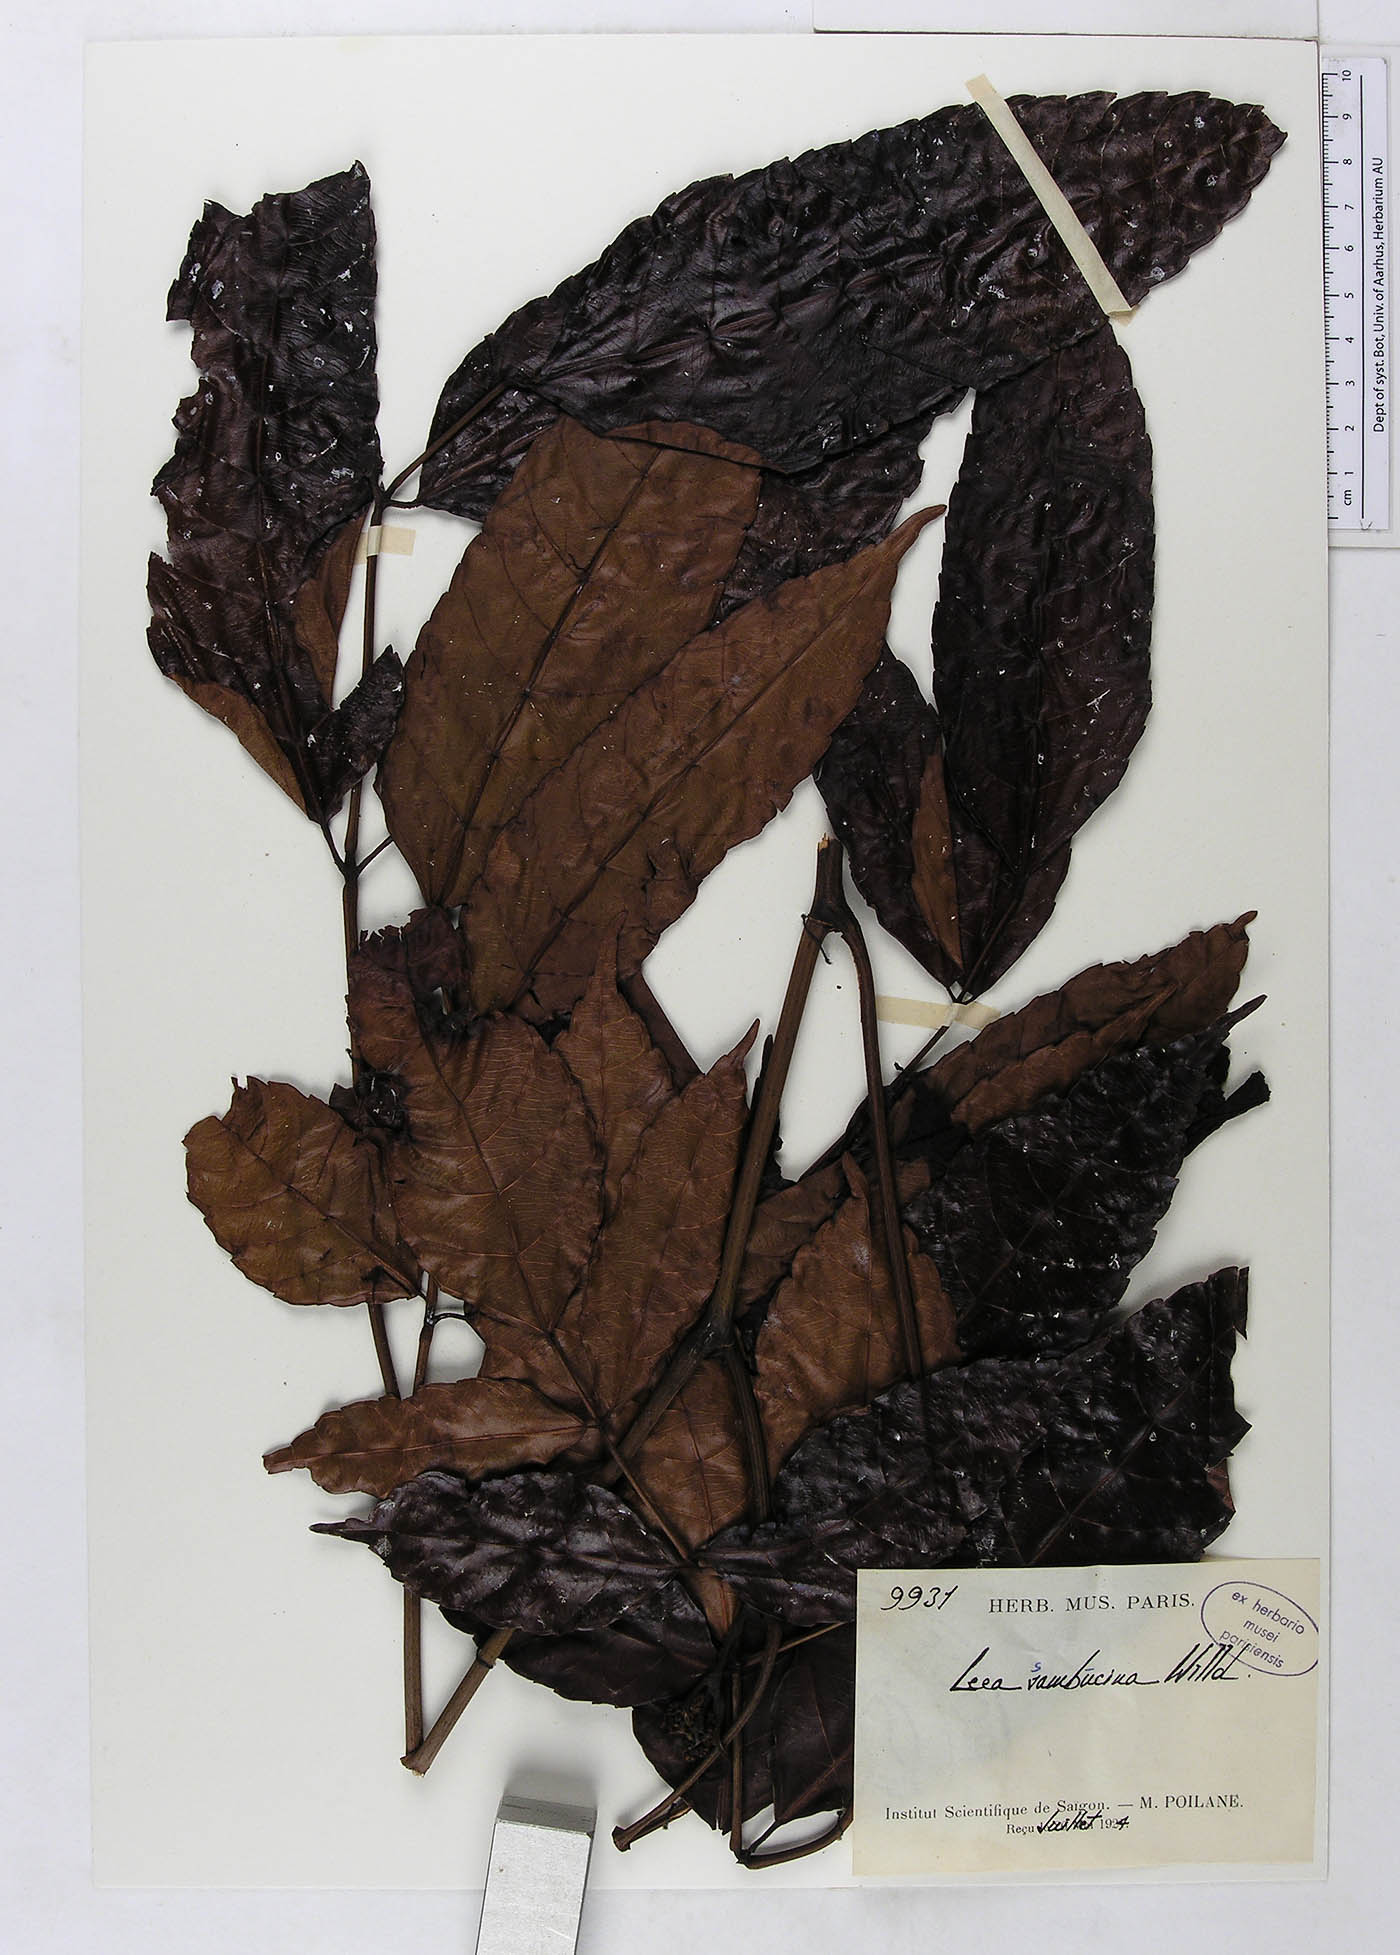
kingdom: Plantae
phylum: Tracheophyta
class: Magnoliopsida
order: Vitales
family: Vitaceae
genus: Leea
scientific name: Leea indica
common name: Bandicoot-berry
